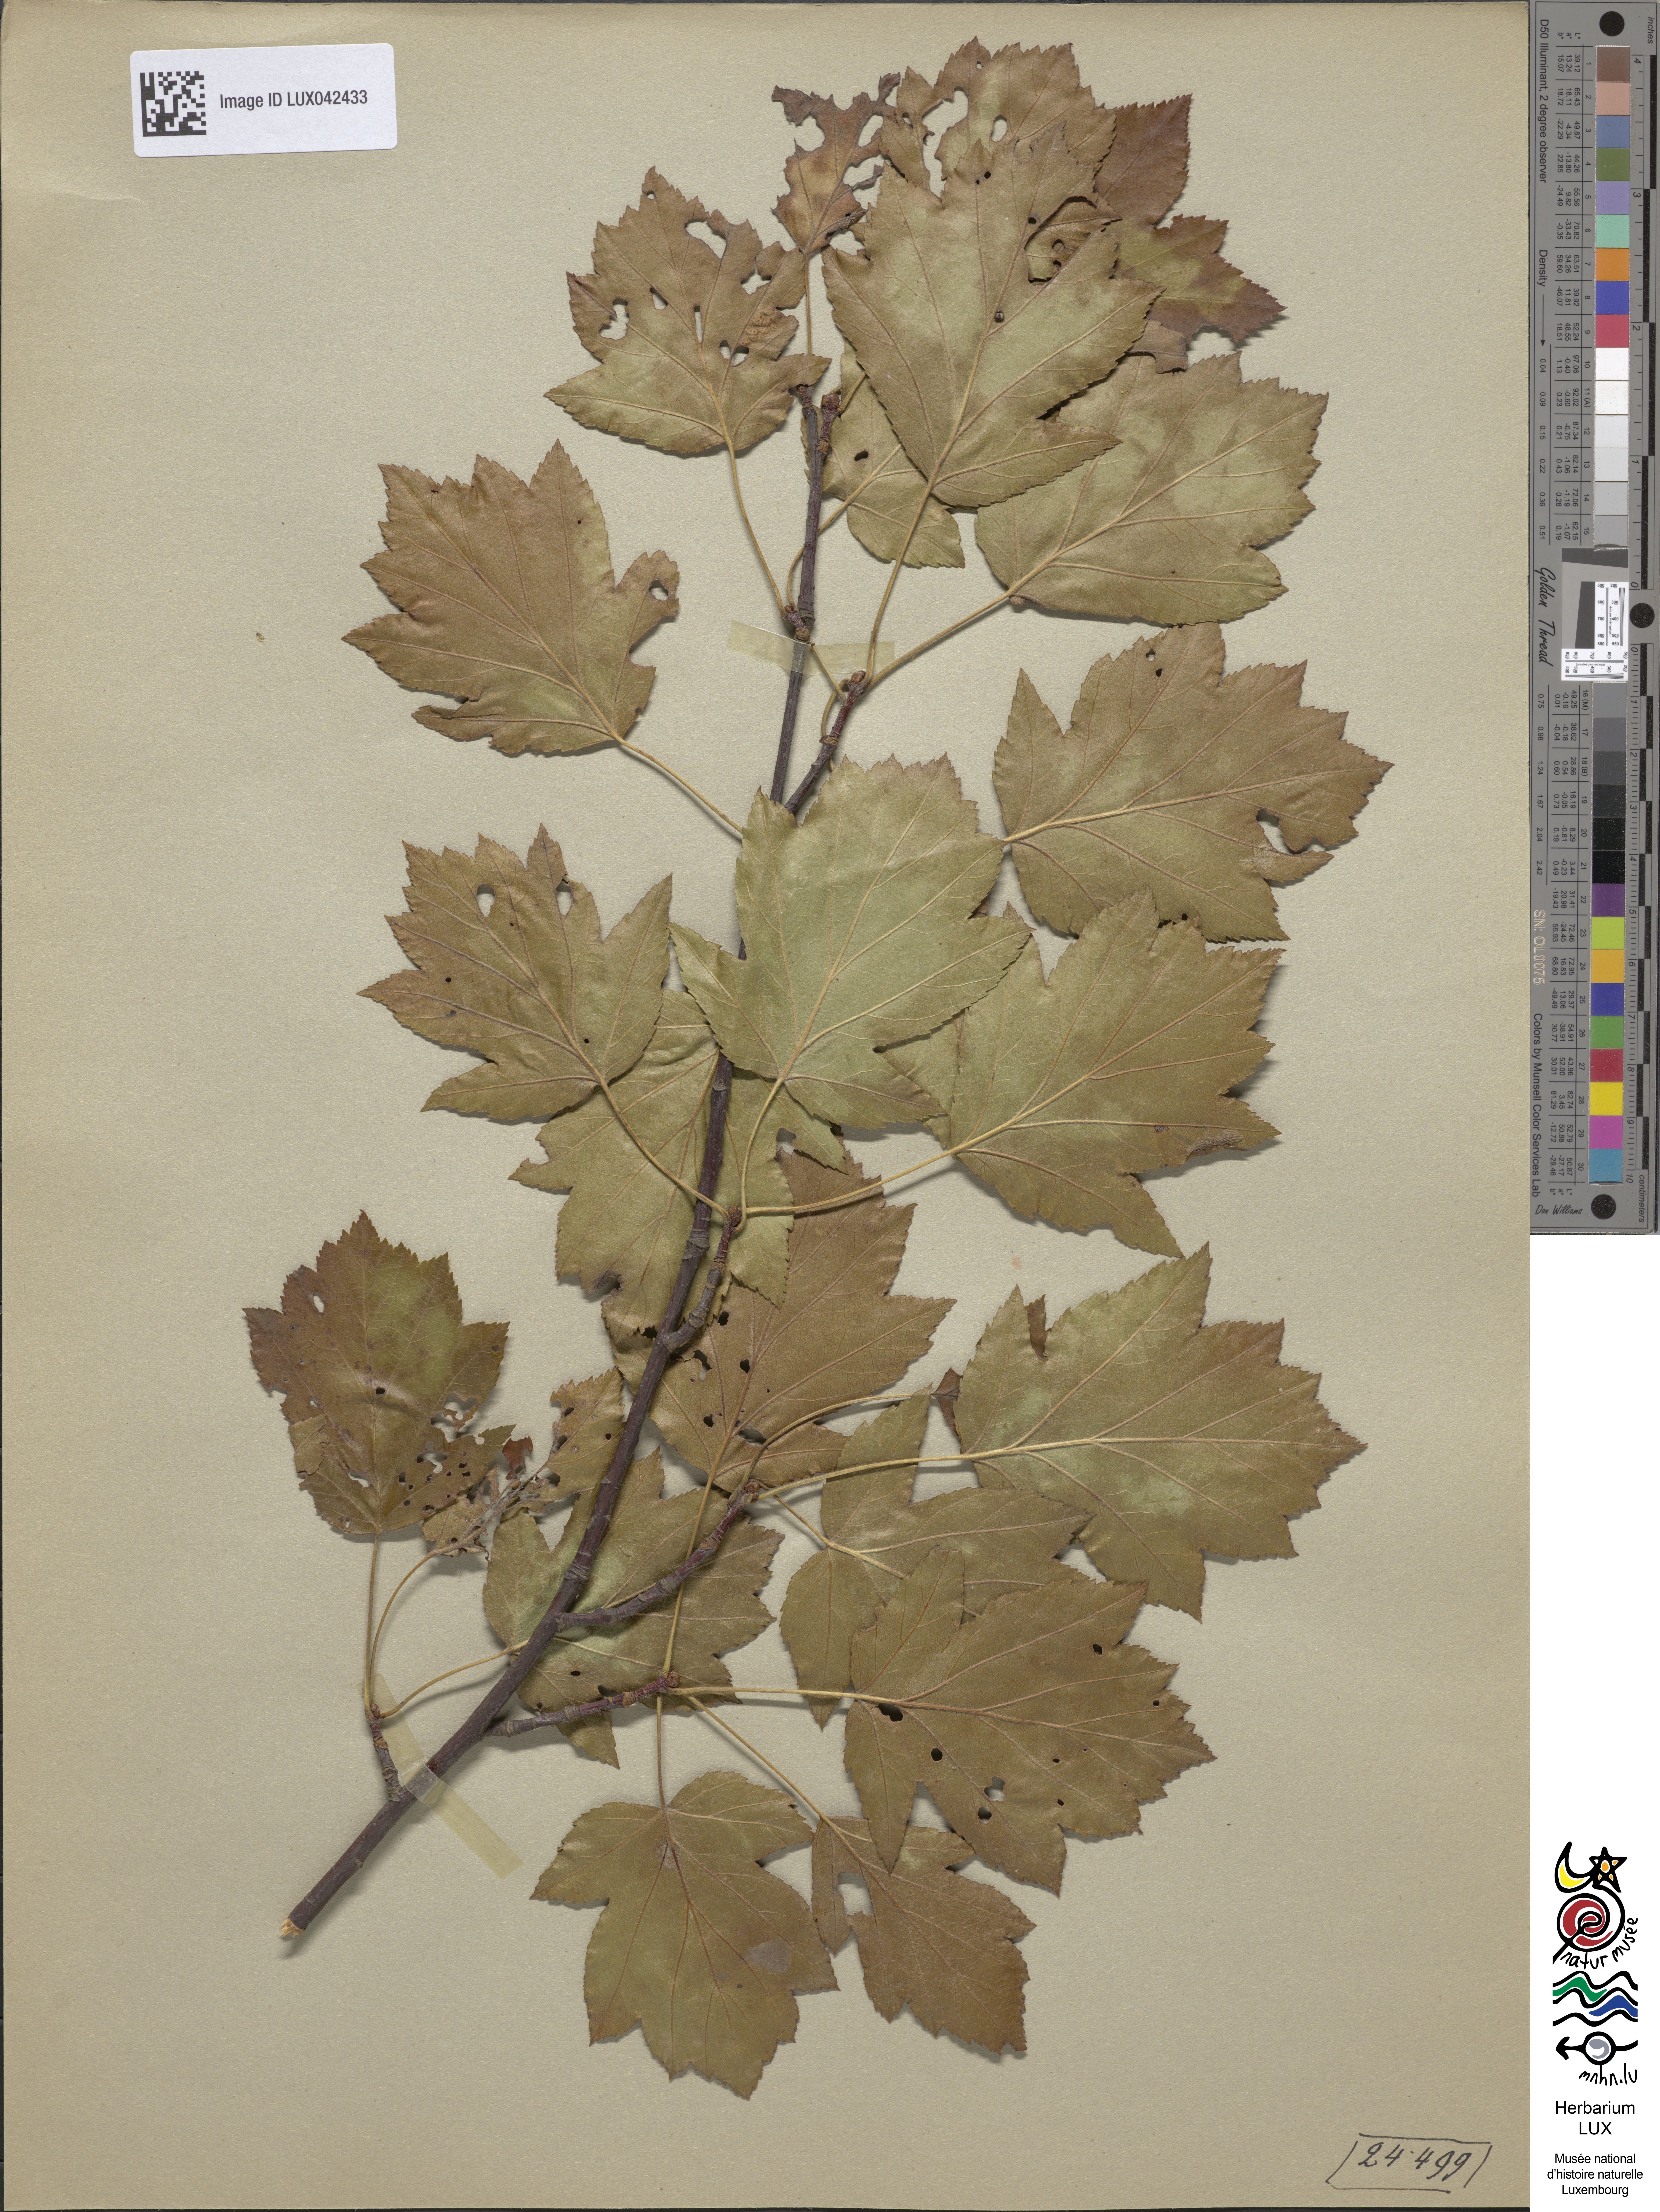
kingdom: Plantae
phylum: Tracheophyta
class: Magnoliopsida
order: Rosales
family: Rosaceae
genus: Torminalis
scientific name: Torminalis glaberrima
